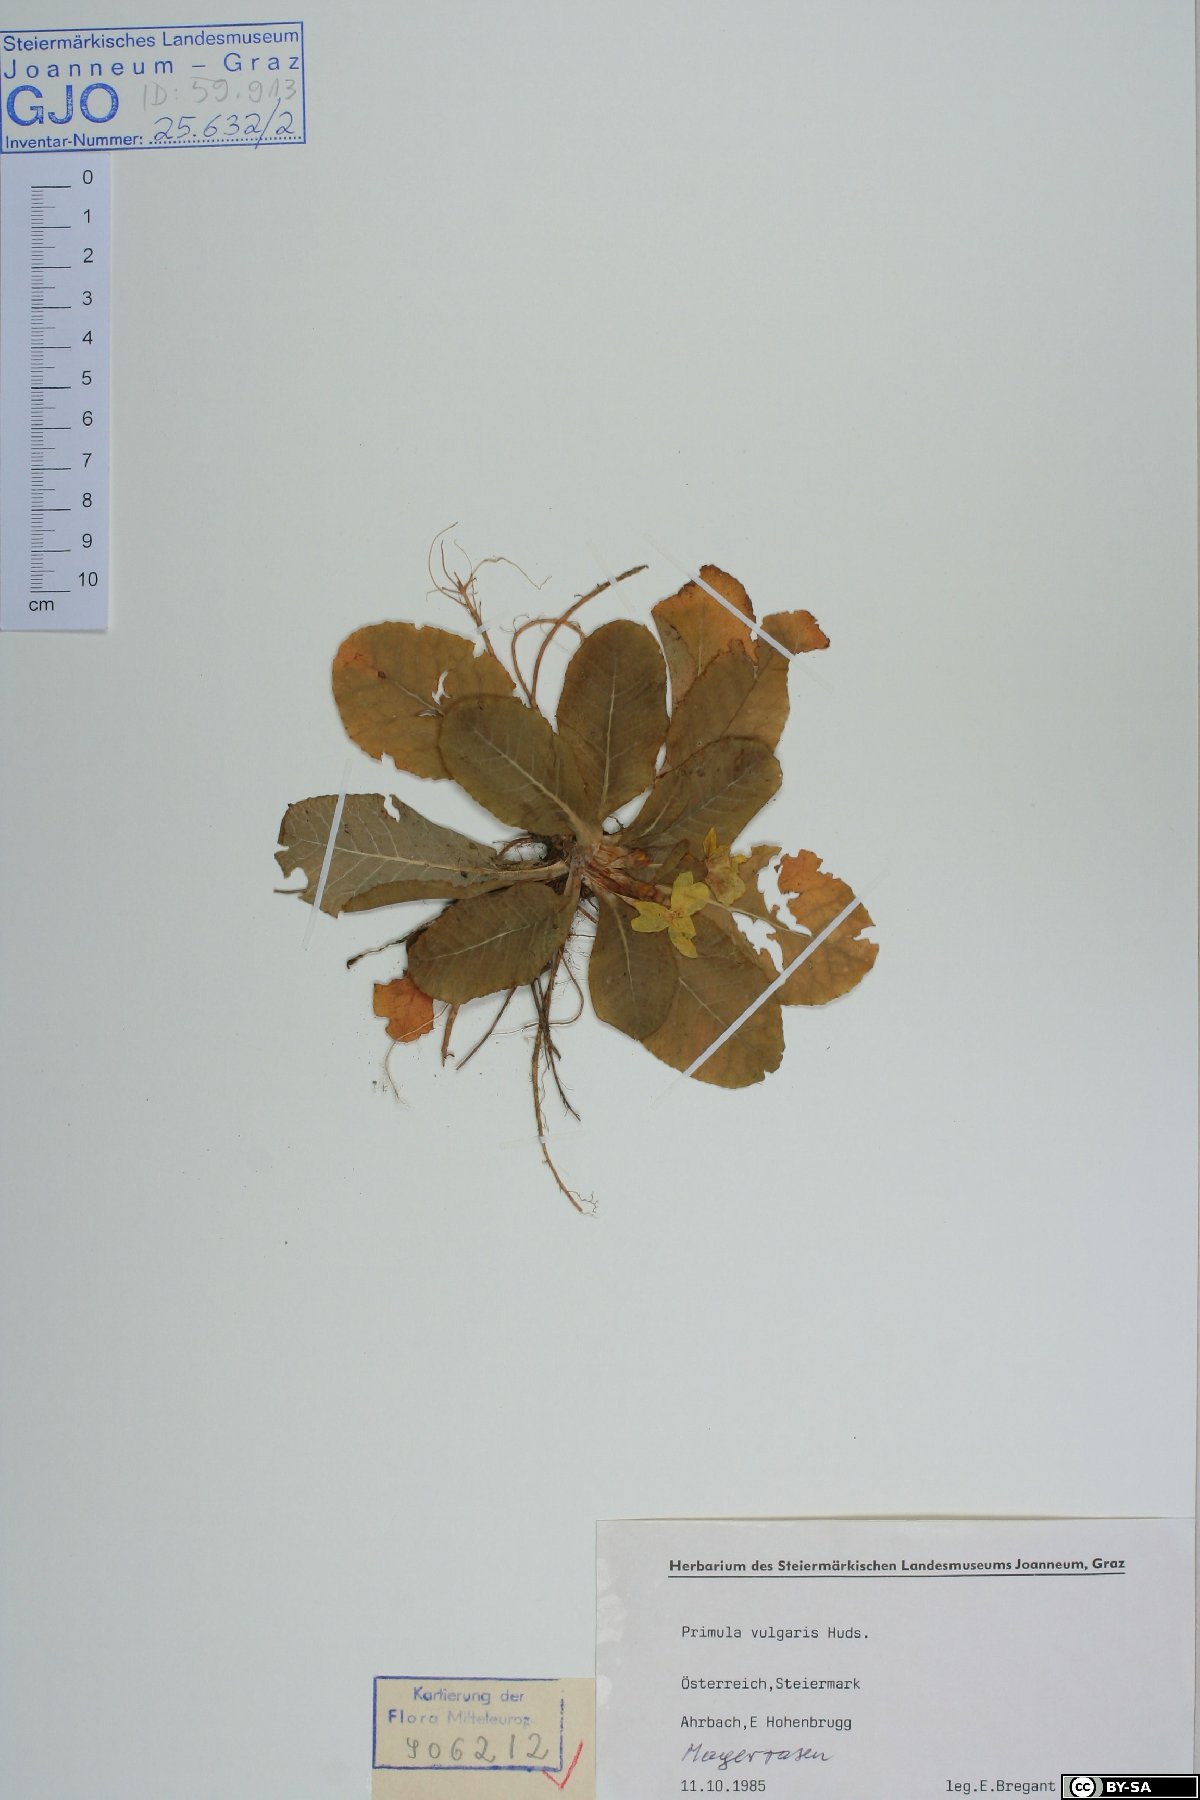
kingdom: Plantae
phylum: Tracheophyta
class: Magnoliopsida
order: Ericales
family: Primulaceae
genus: Primula
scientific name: Primula vulgaris
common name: Primrose
